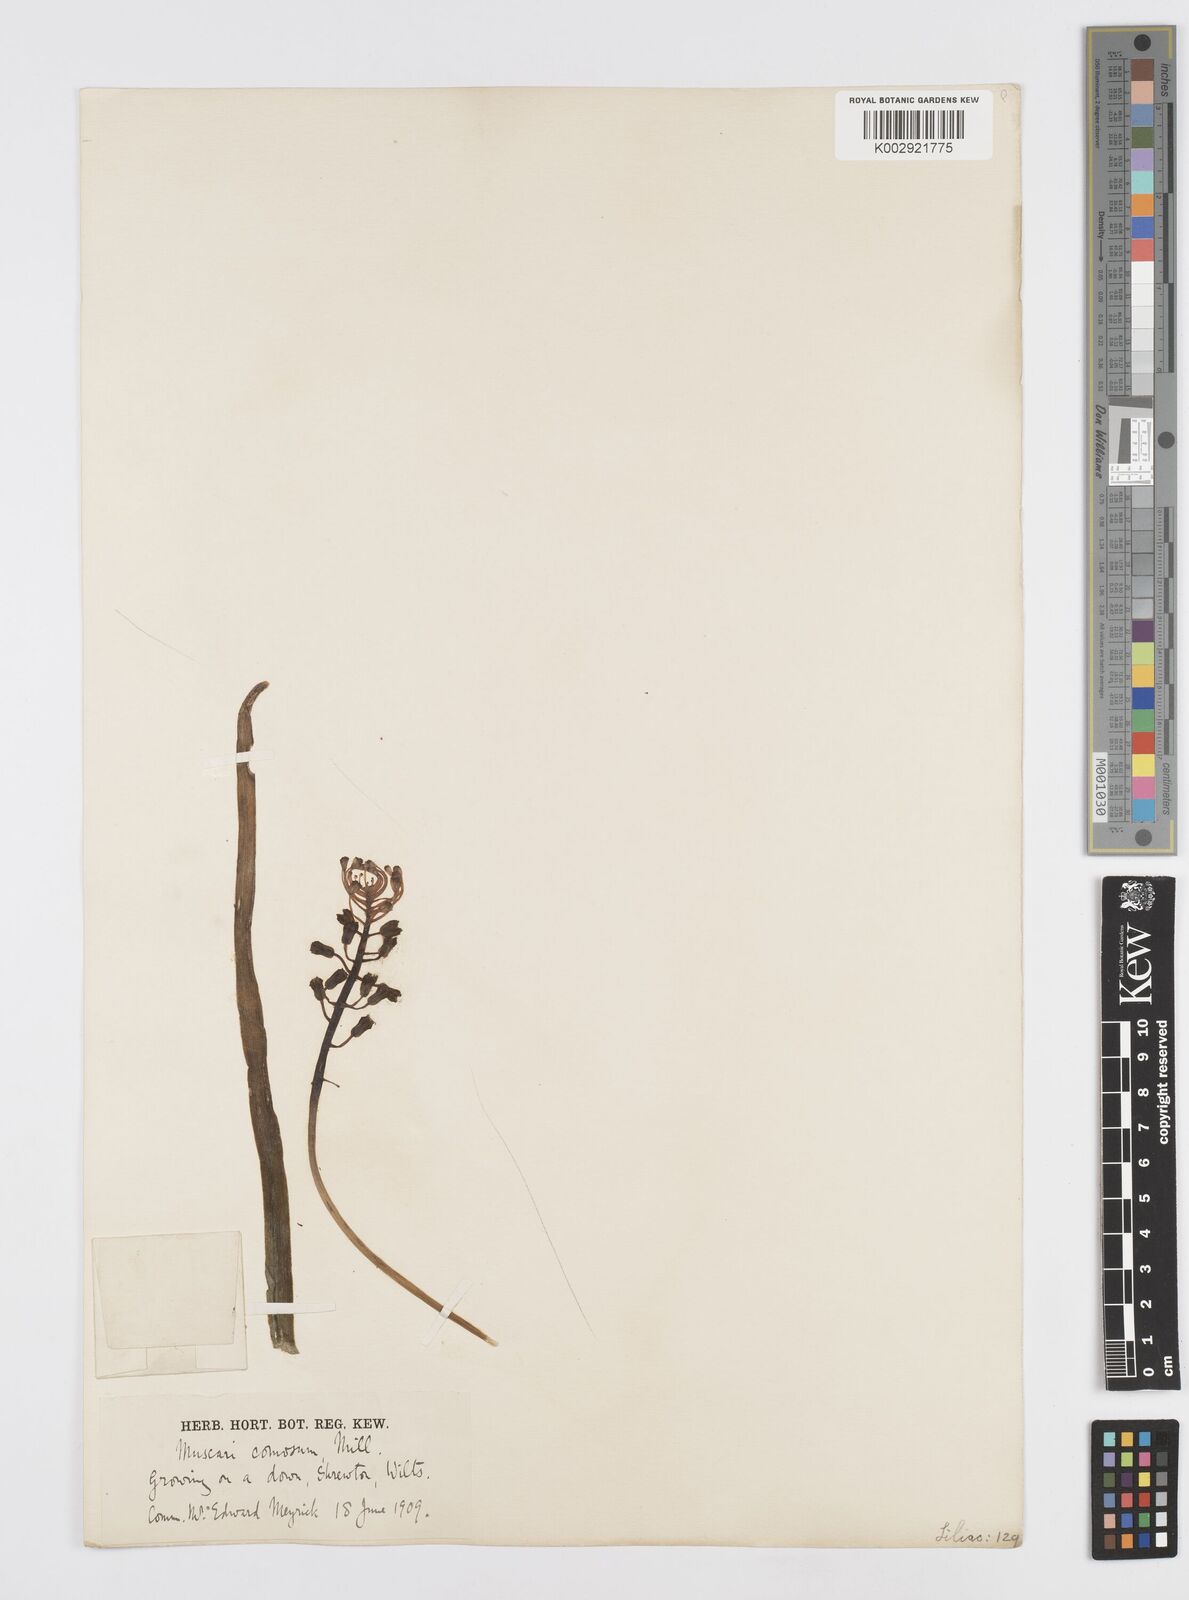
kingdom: Plantae
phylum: Tracheophyta
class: Liliopsida
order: Asparagales
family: Asparagaceae
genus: Muscari
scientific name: Muscari comosum
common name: Tassel hyacinth
